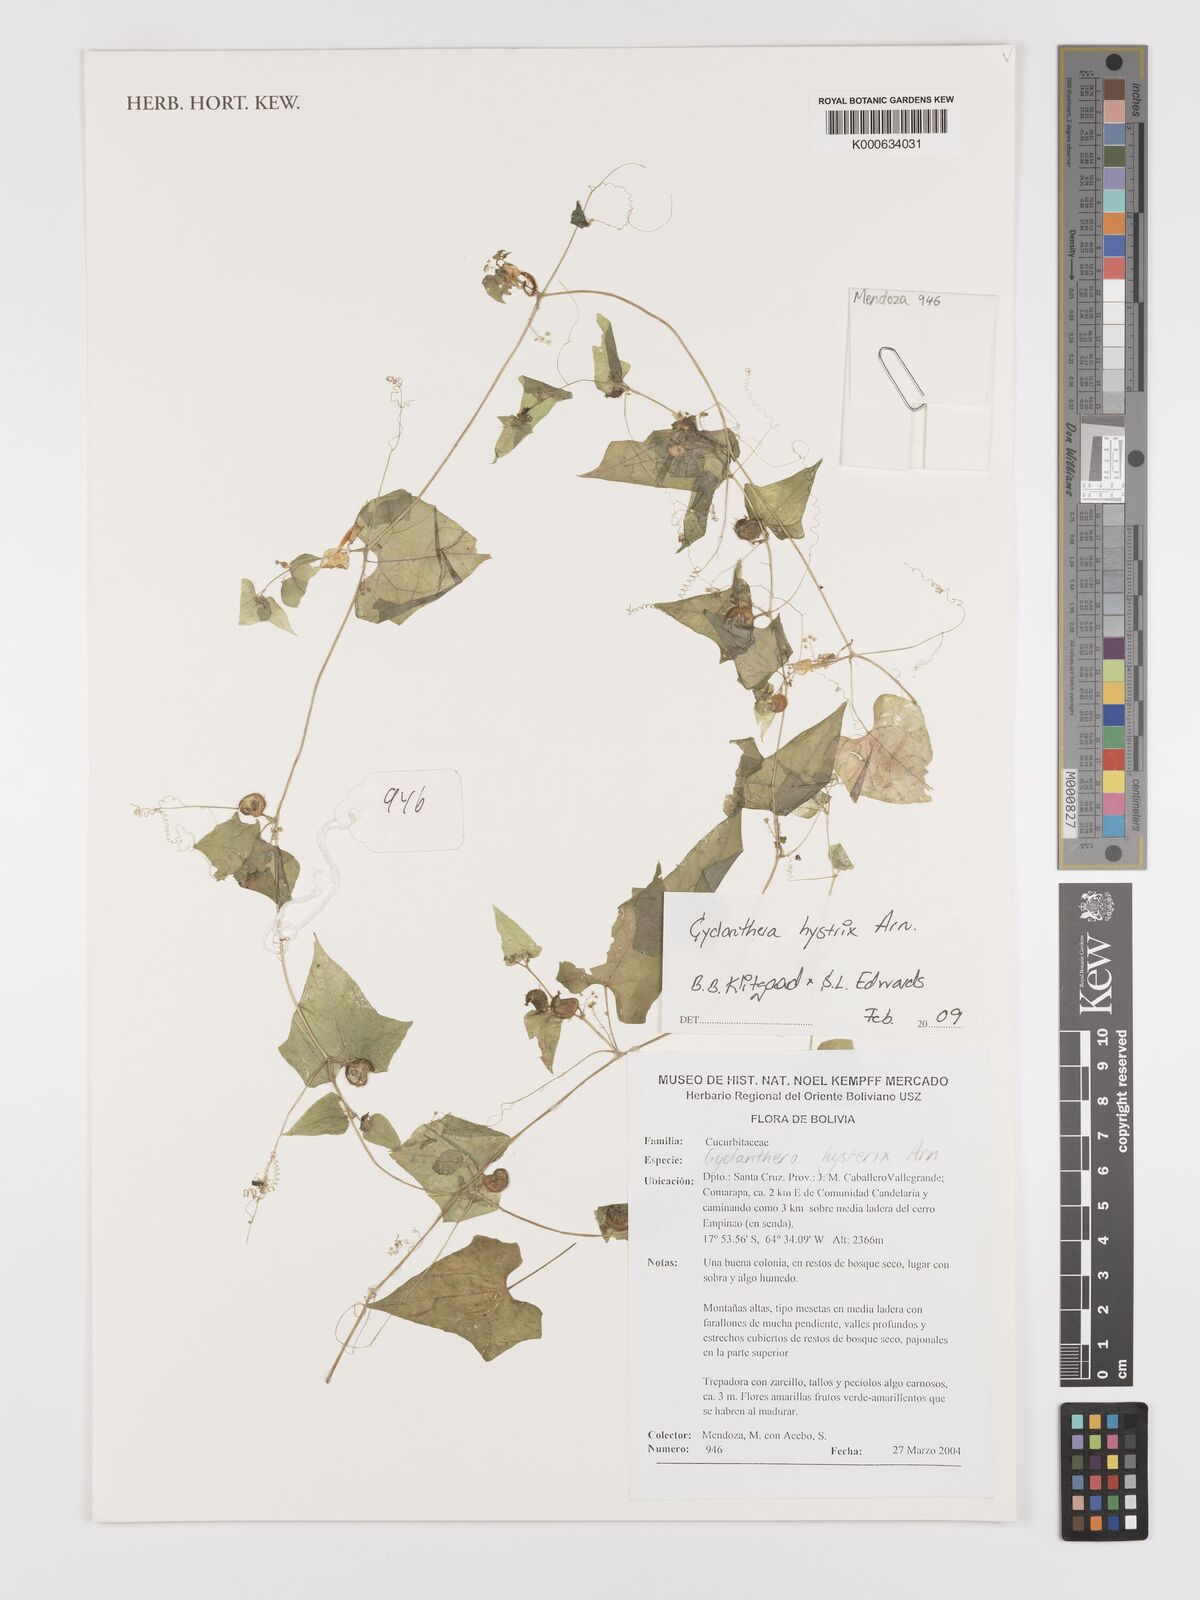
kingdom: Plantae
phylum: Tracheophyta
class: Magnoliopsida
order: Cucurbitales
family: Cucurbitaceae
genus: Cyclanthera
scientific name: Cyclanthera hystrix
